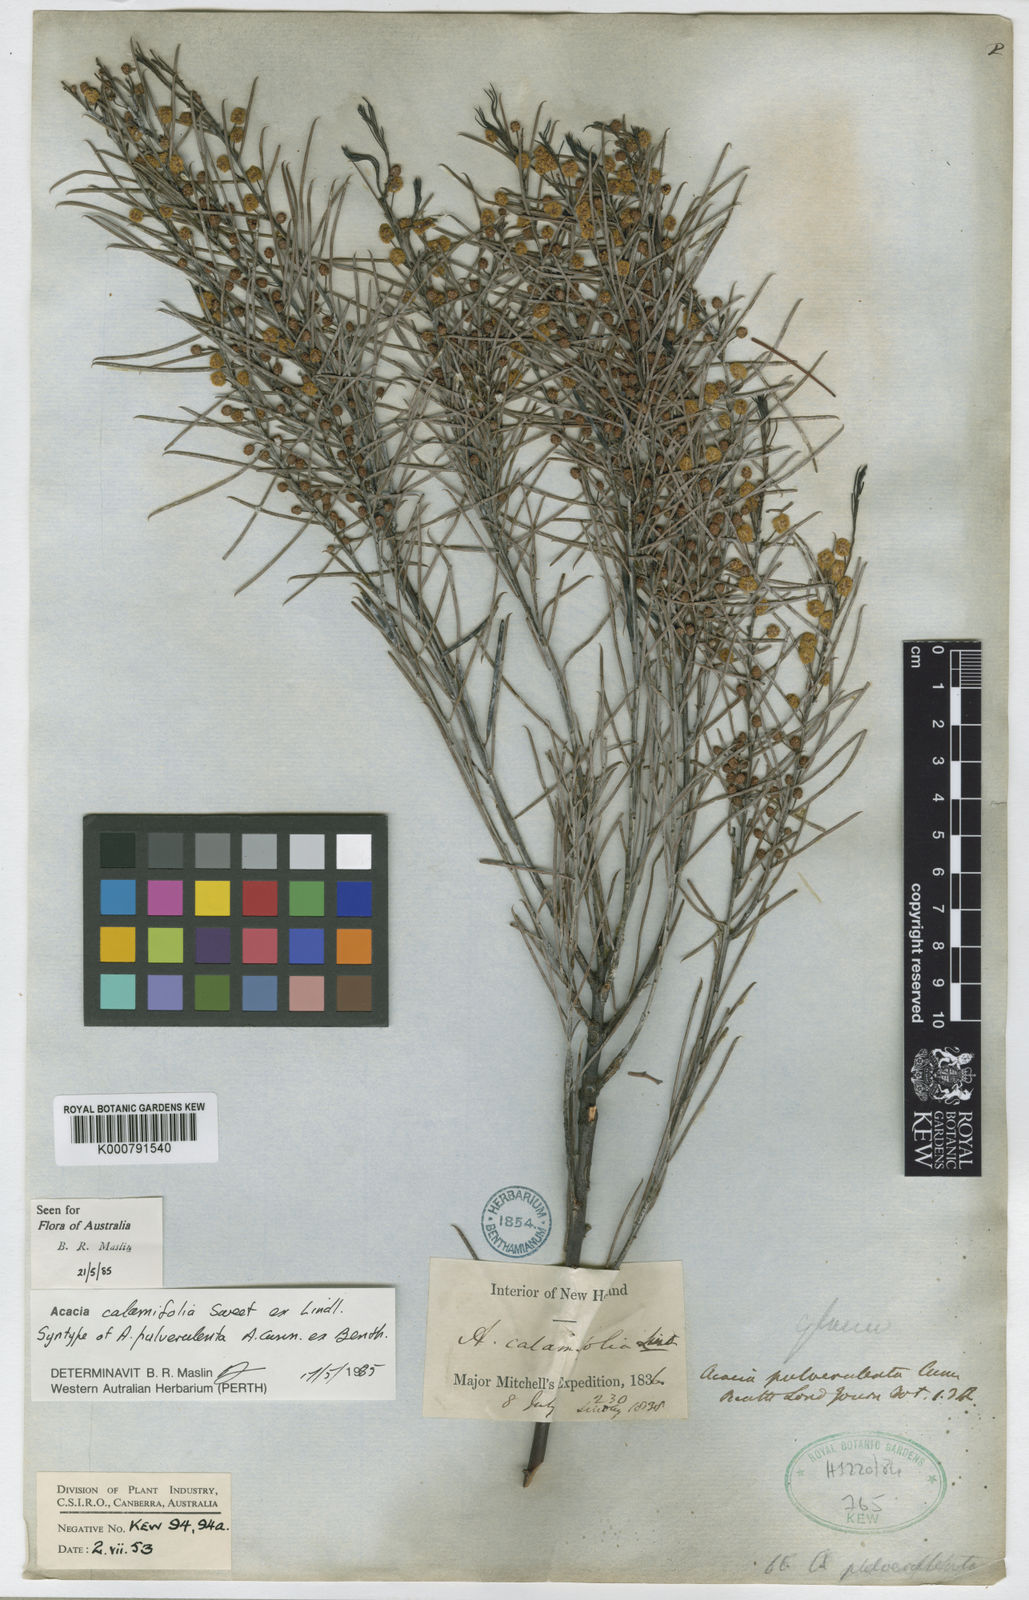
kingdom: Plantae
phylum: Tracheophyta
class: Magnoliopsida
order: Fabales
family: Fabaceae
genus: Acacia
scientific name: Acacia calamifolia
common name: Broom wattle
